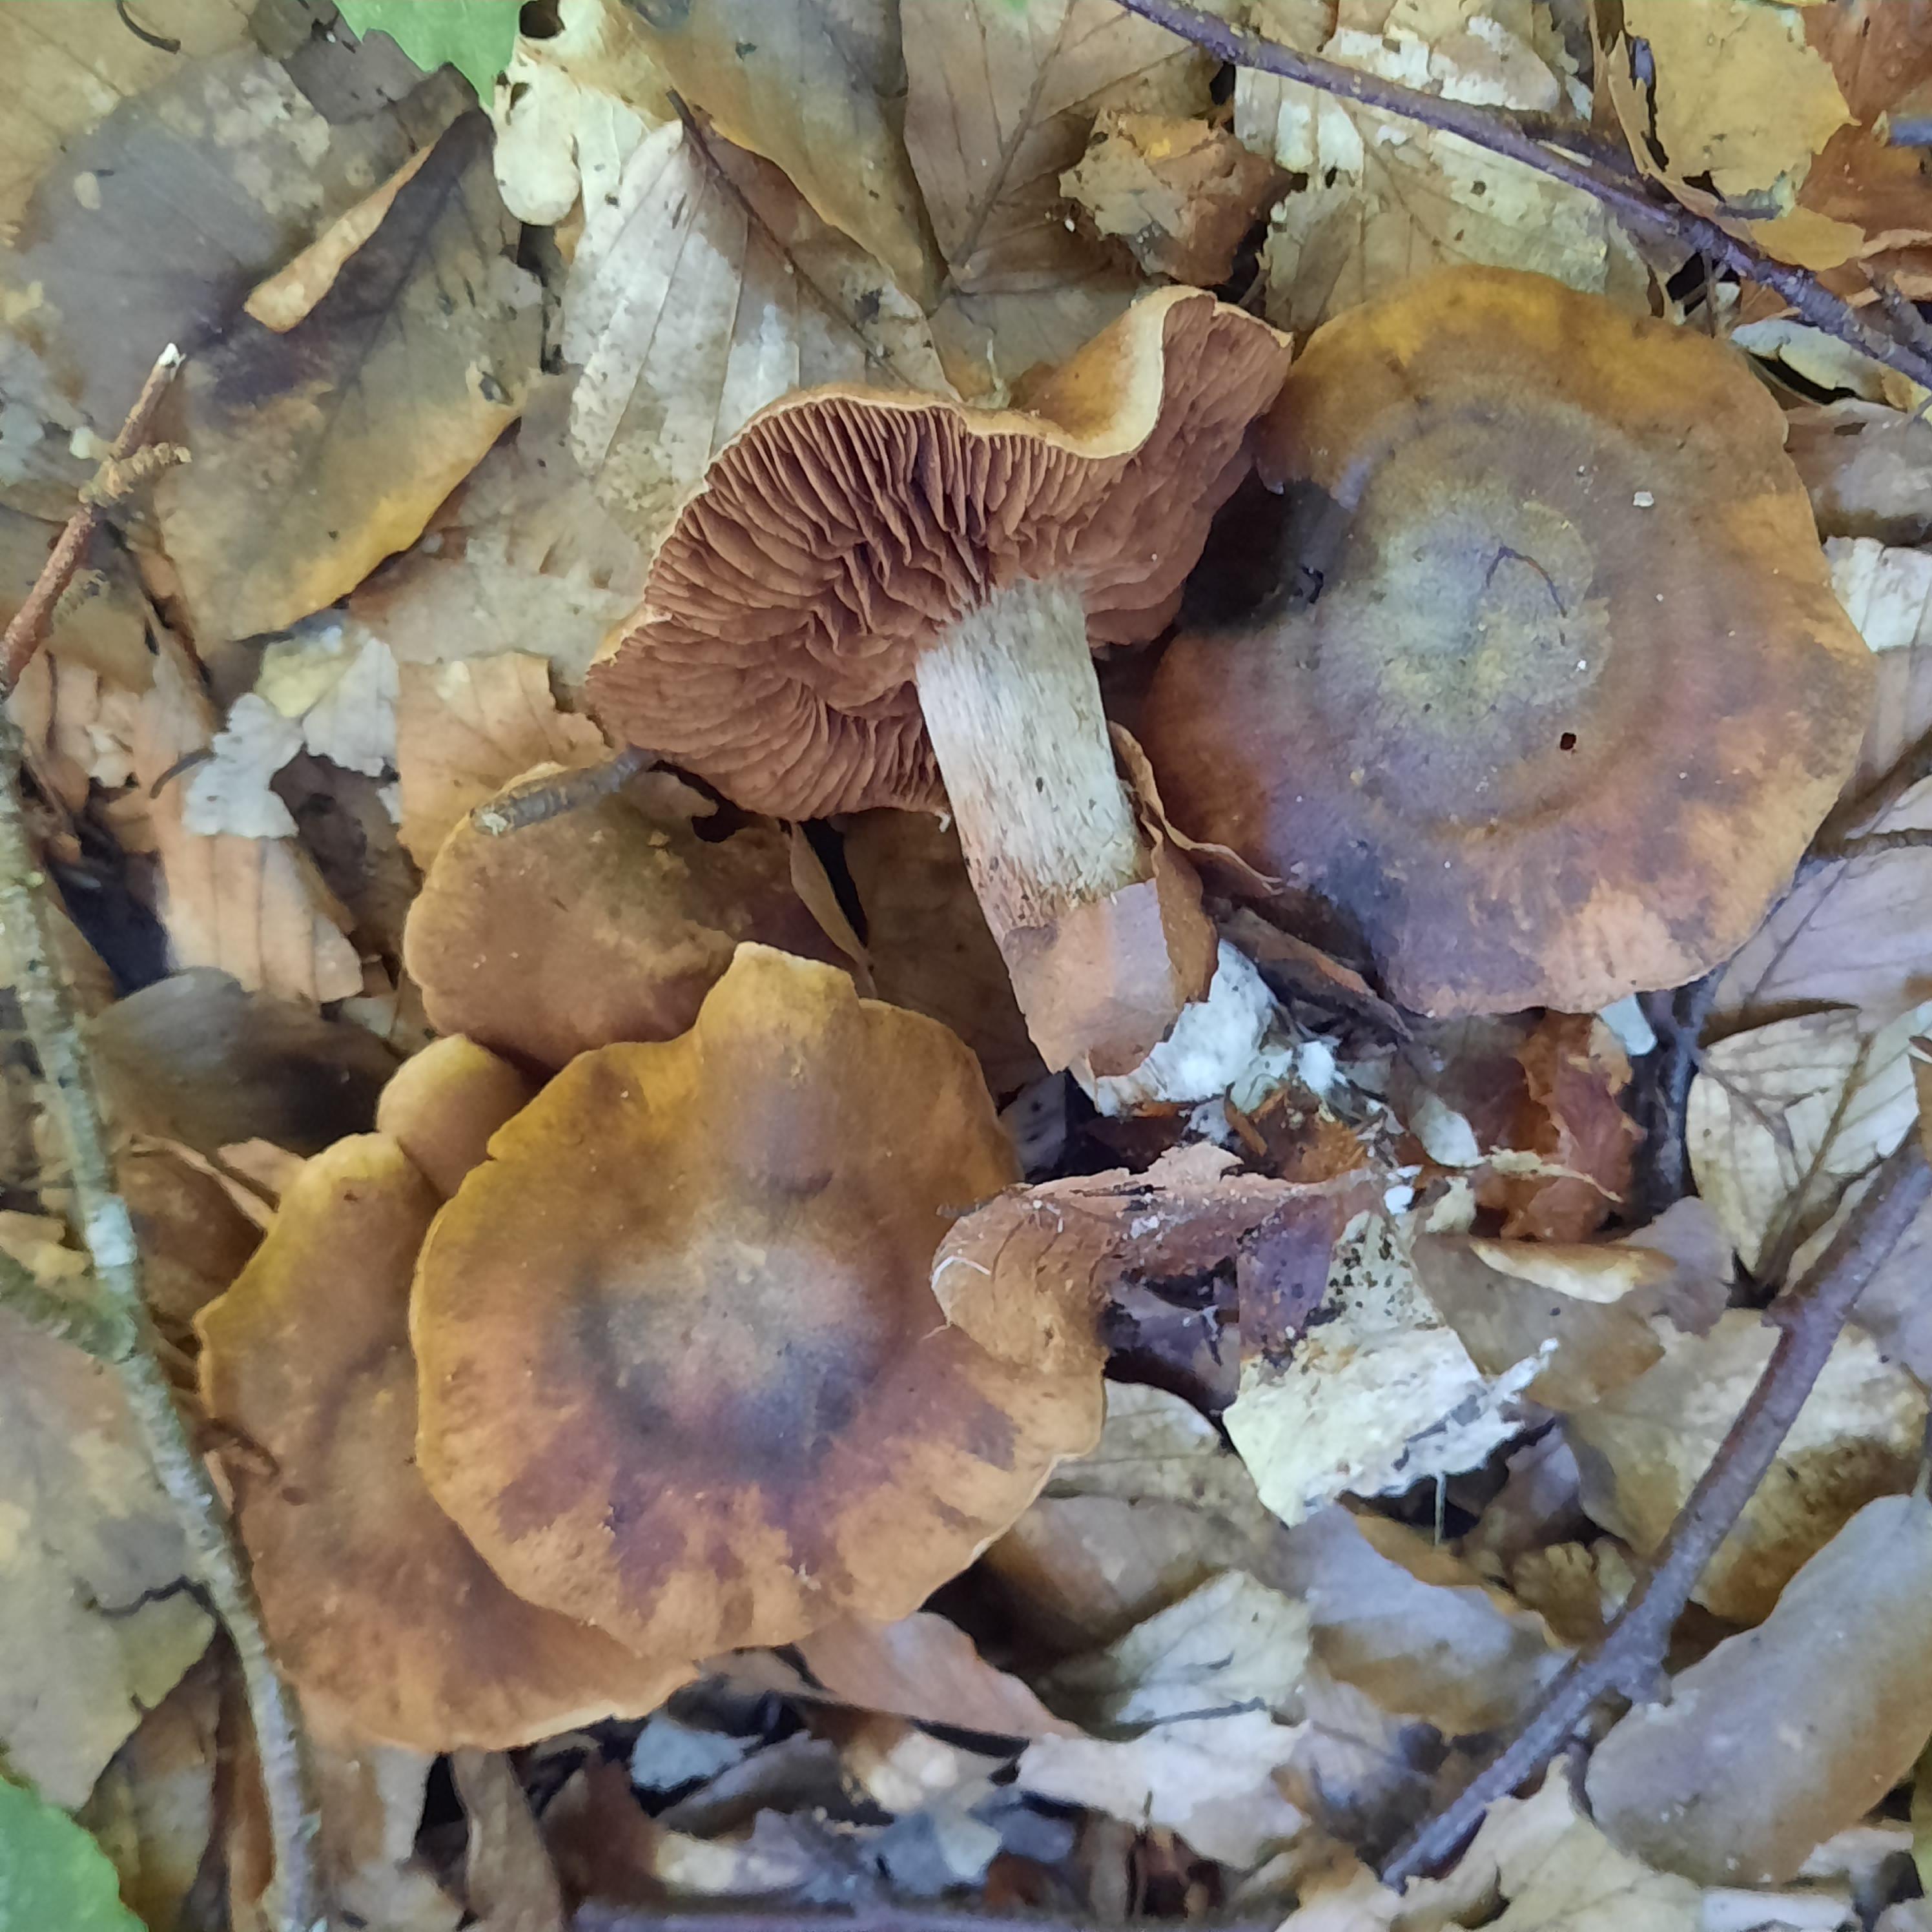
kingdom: Fungi
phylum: Basidiomycota
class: Agaricomycetes
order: Agaricales
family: Cortinariaceae
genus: Cortinarius
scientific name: Cortinarius
